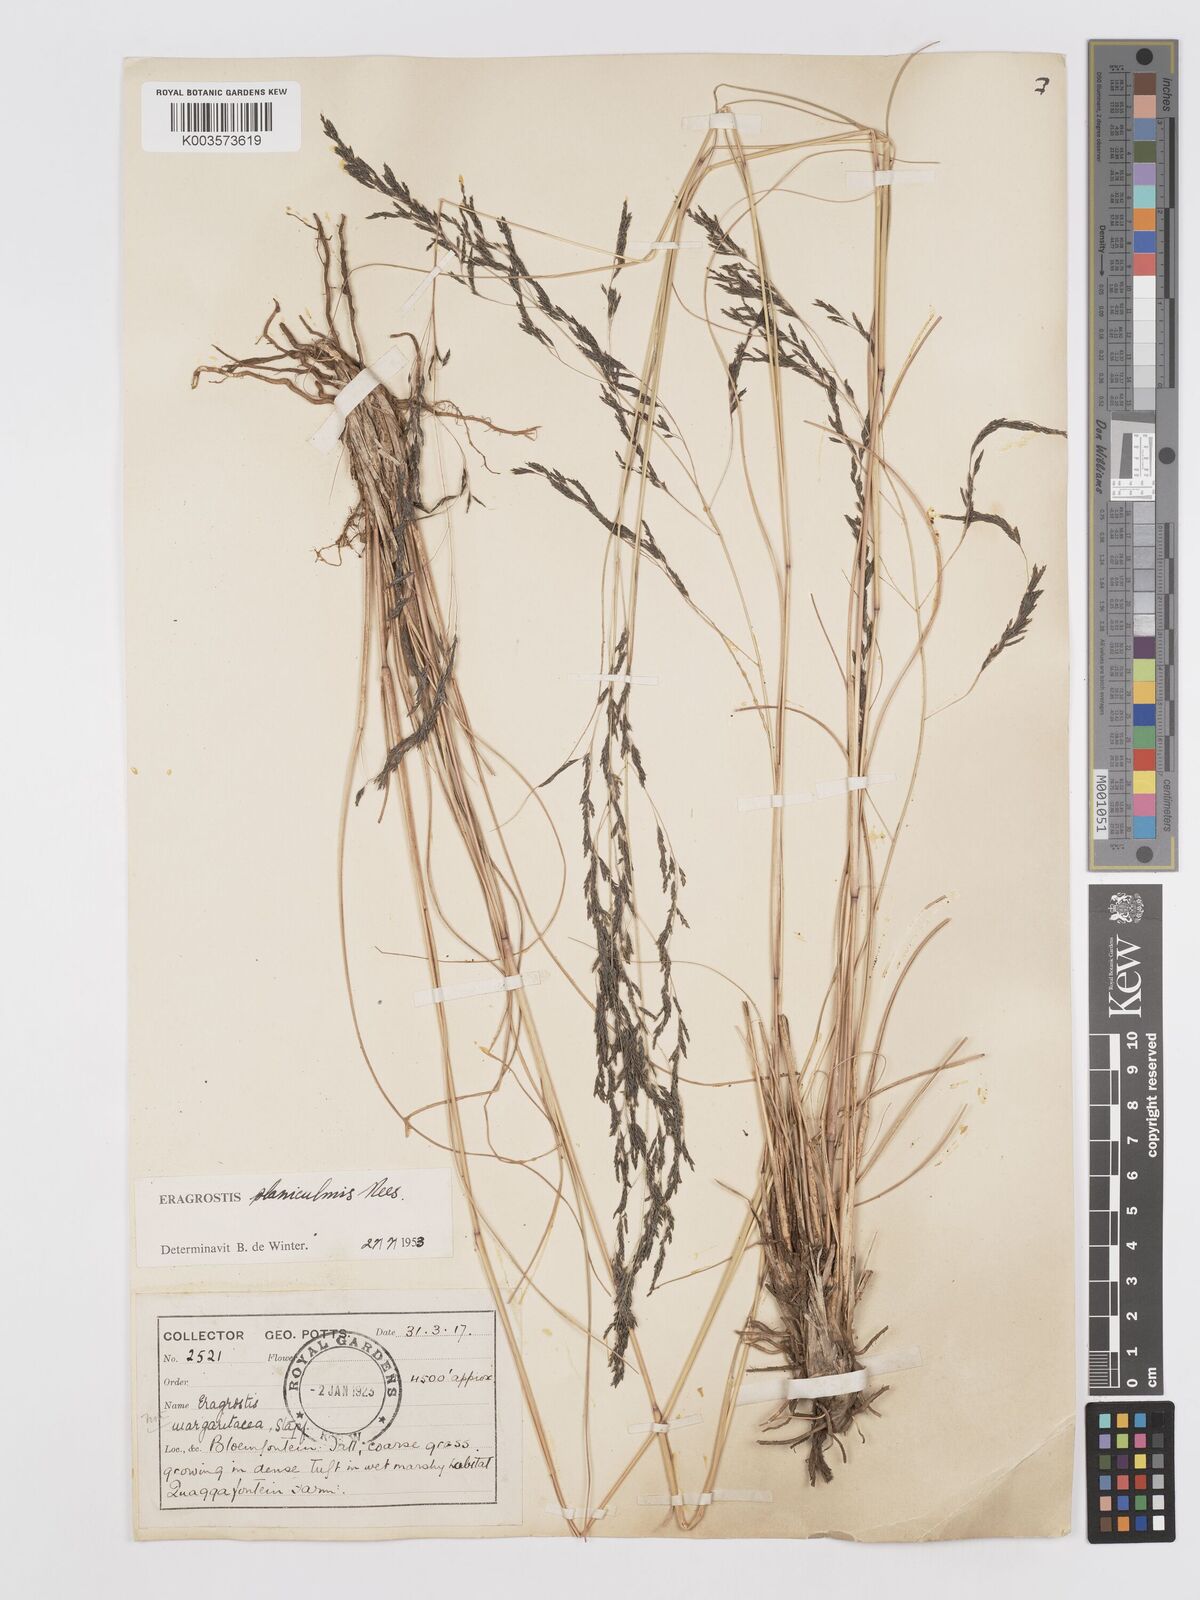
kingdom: Plantae
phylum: Tracheophyta
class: Liliopsida
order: Poales
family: Poaceae
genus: Eragrostis
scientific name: Eragrostis planiculmis
